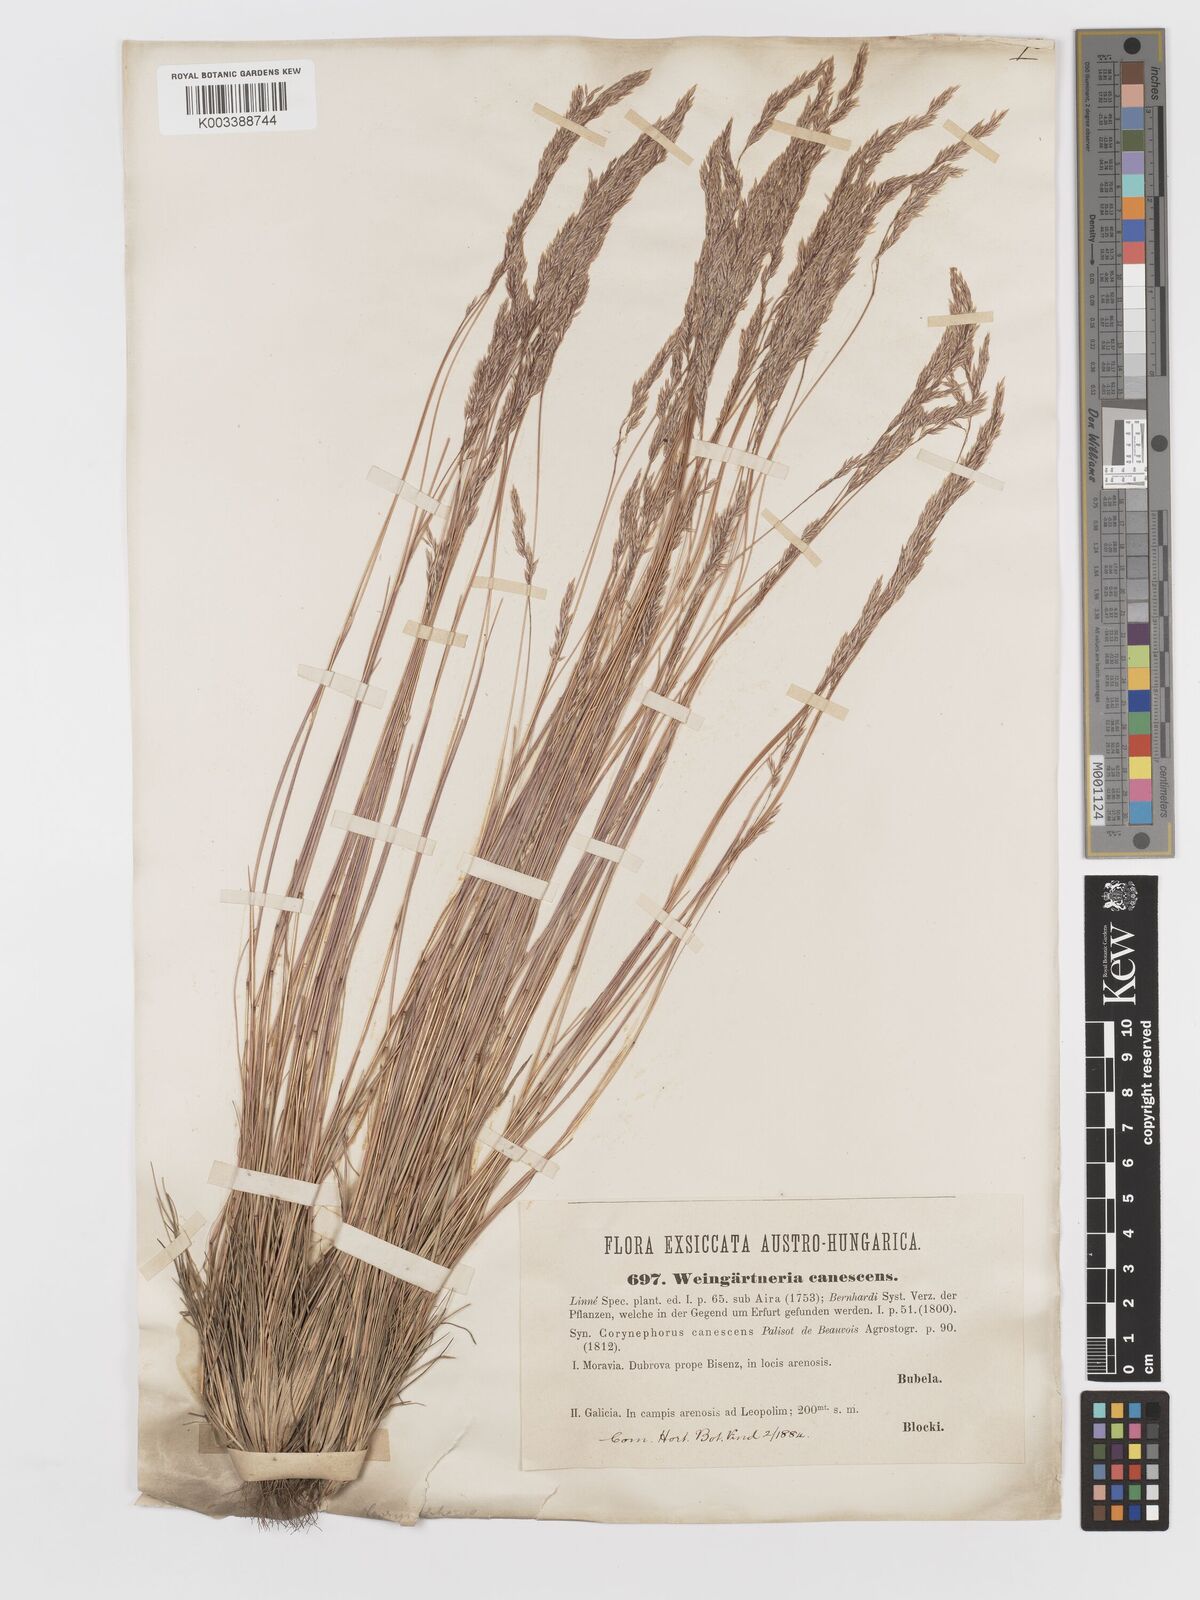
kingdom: Plantae
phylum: Tracheophyta
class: Liliopsida
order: Poales
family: Poaceae
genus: Corynephorus
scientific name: Corynephorus canescens
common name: Grey hair-grass
